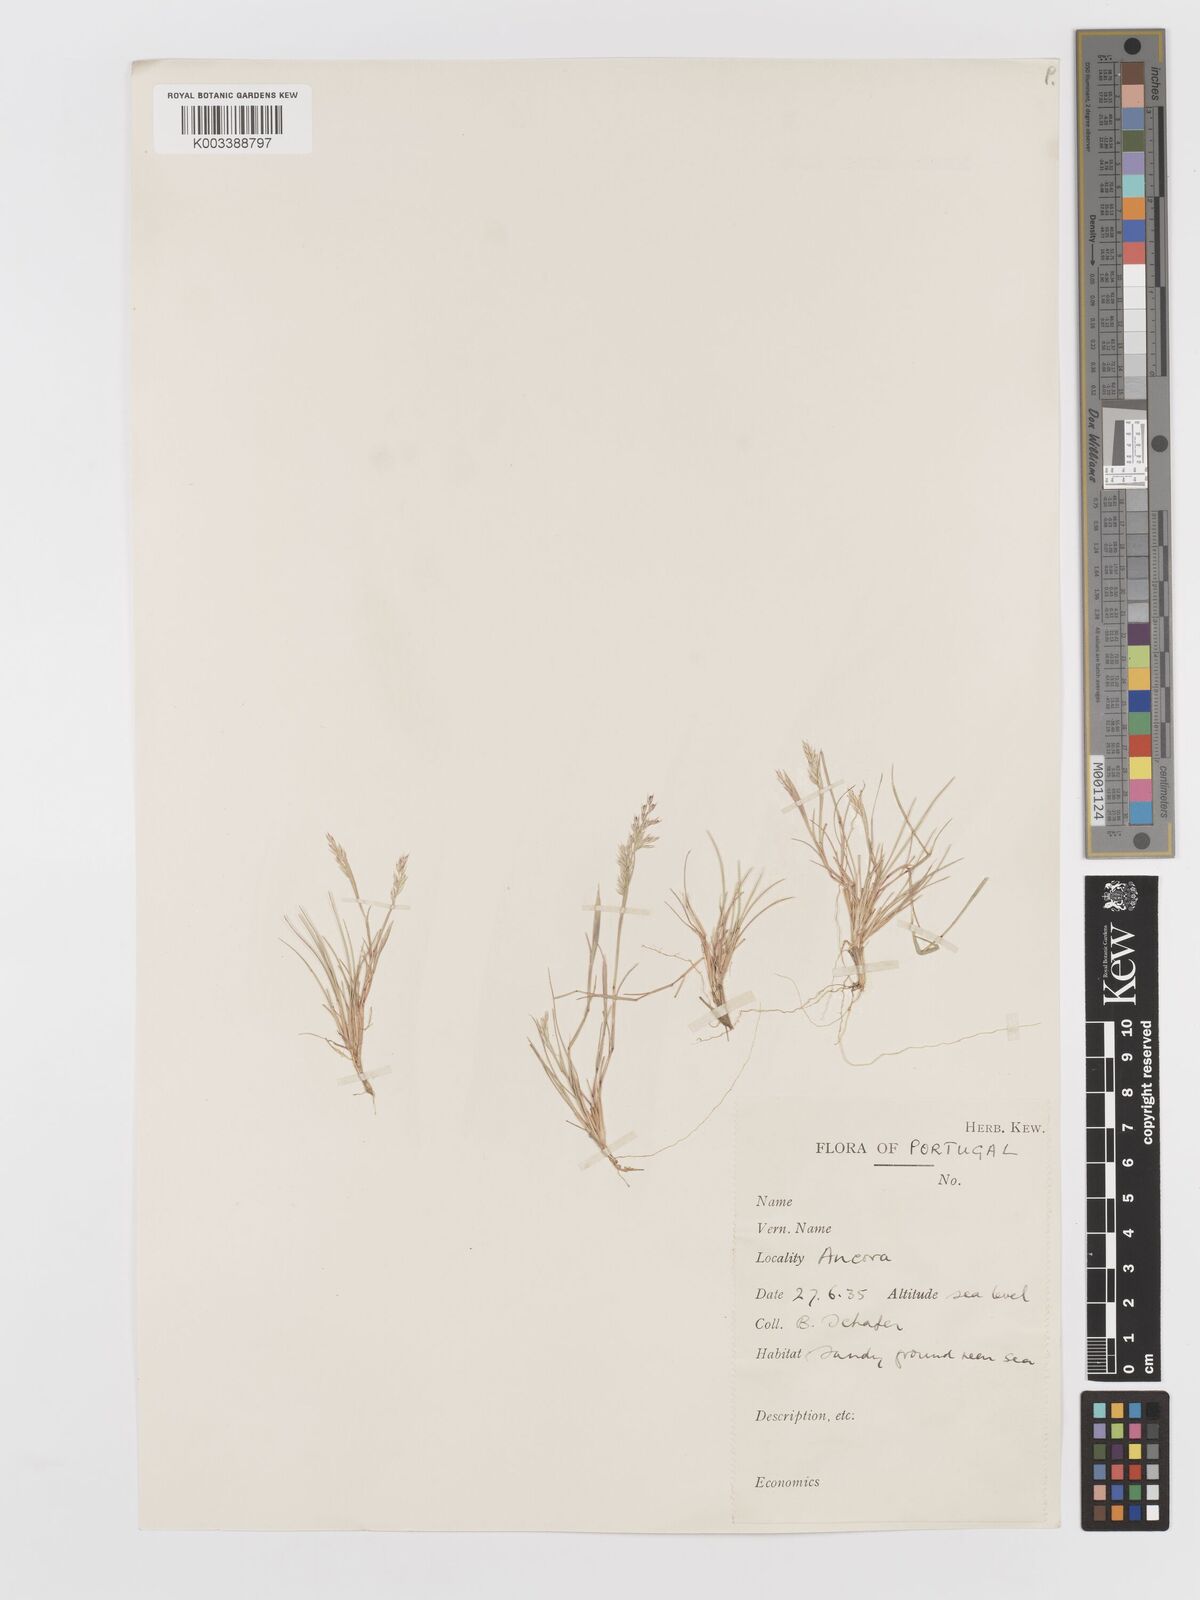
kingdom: Plantae
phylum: Tracheophyta
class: Liliopsida
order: Poales
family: Poaceae
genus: Corynephorus
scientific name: Corynephorus canescens
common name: Grey hair-grass
